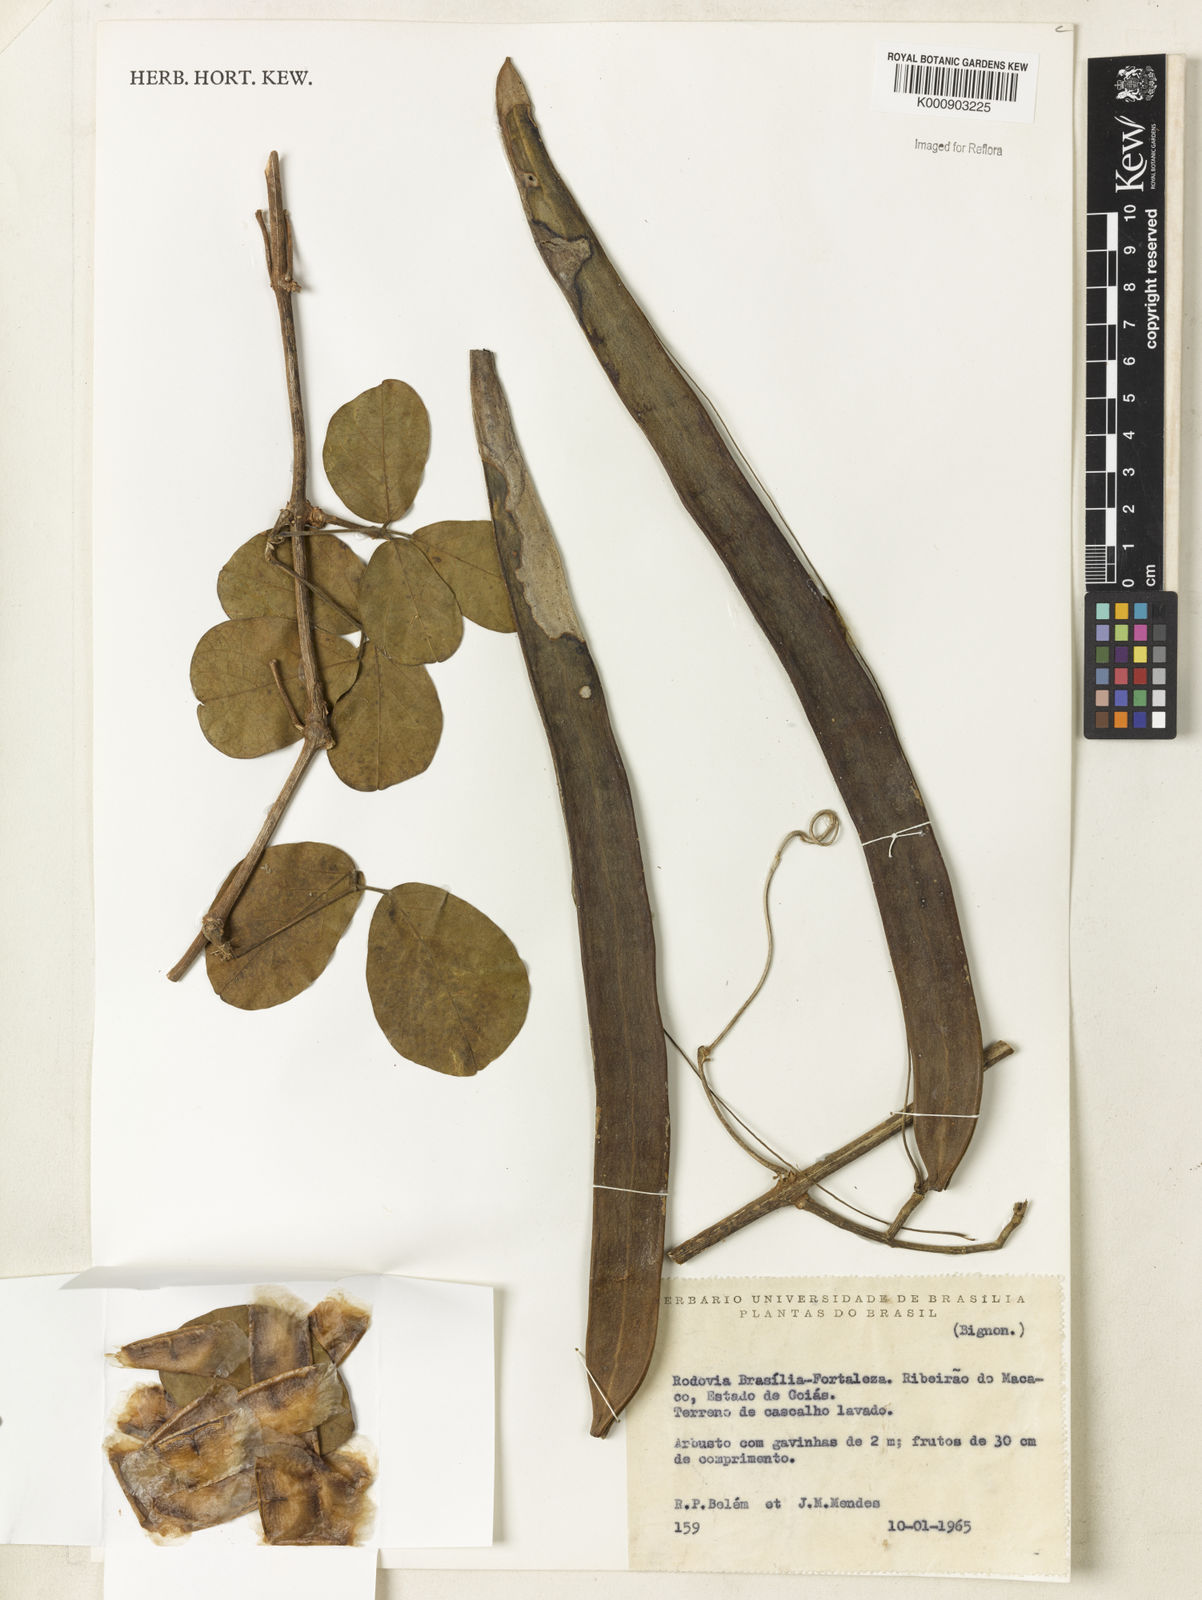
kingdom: Plantae
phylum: Tracheophyta
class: Magnoliopsida
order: Lamiales
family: Bignoniaceae
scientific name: Bignoniaceae
